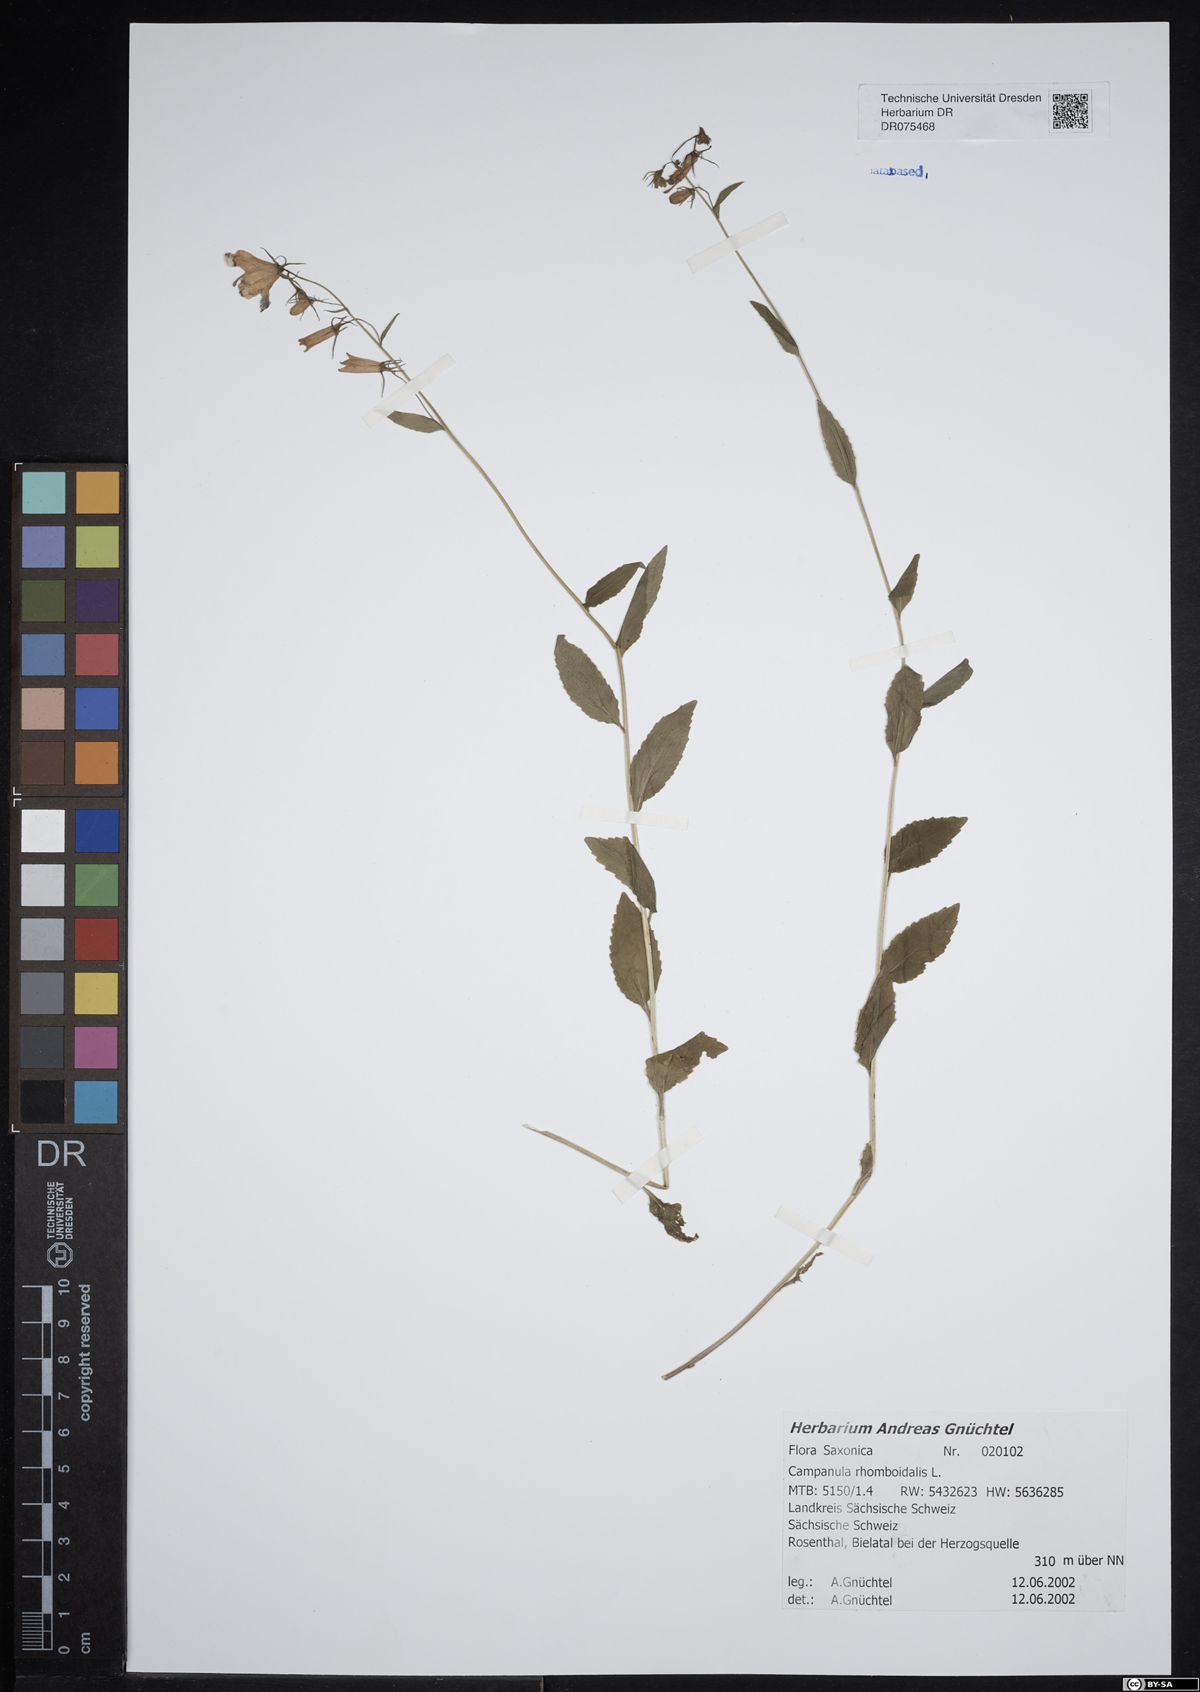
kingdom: Plantae
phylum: Tracheophyta
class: Magnoliopsida
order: Asterales
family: Campanulaceae
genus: Campanula
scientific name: Campanula rhomboidalis
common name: Broad-leaved harebell
